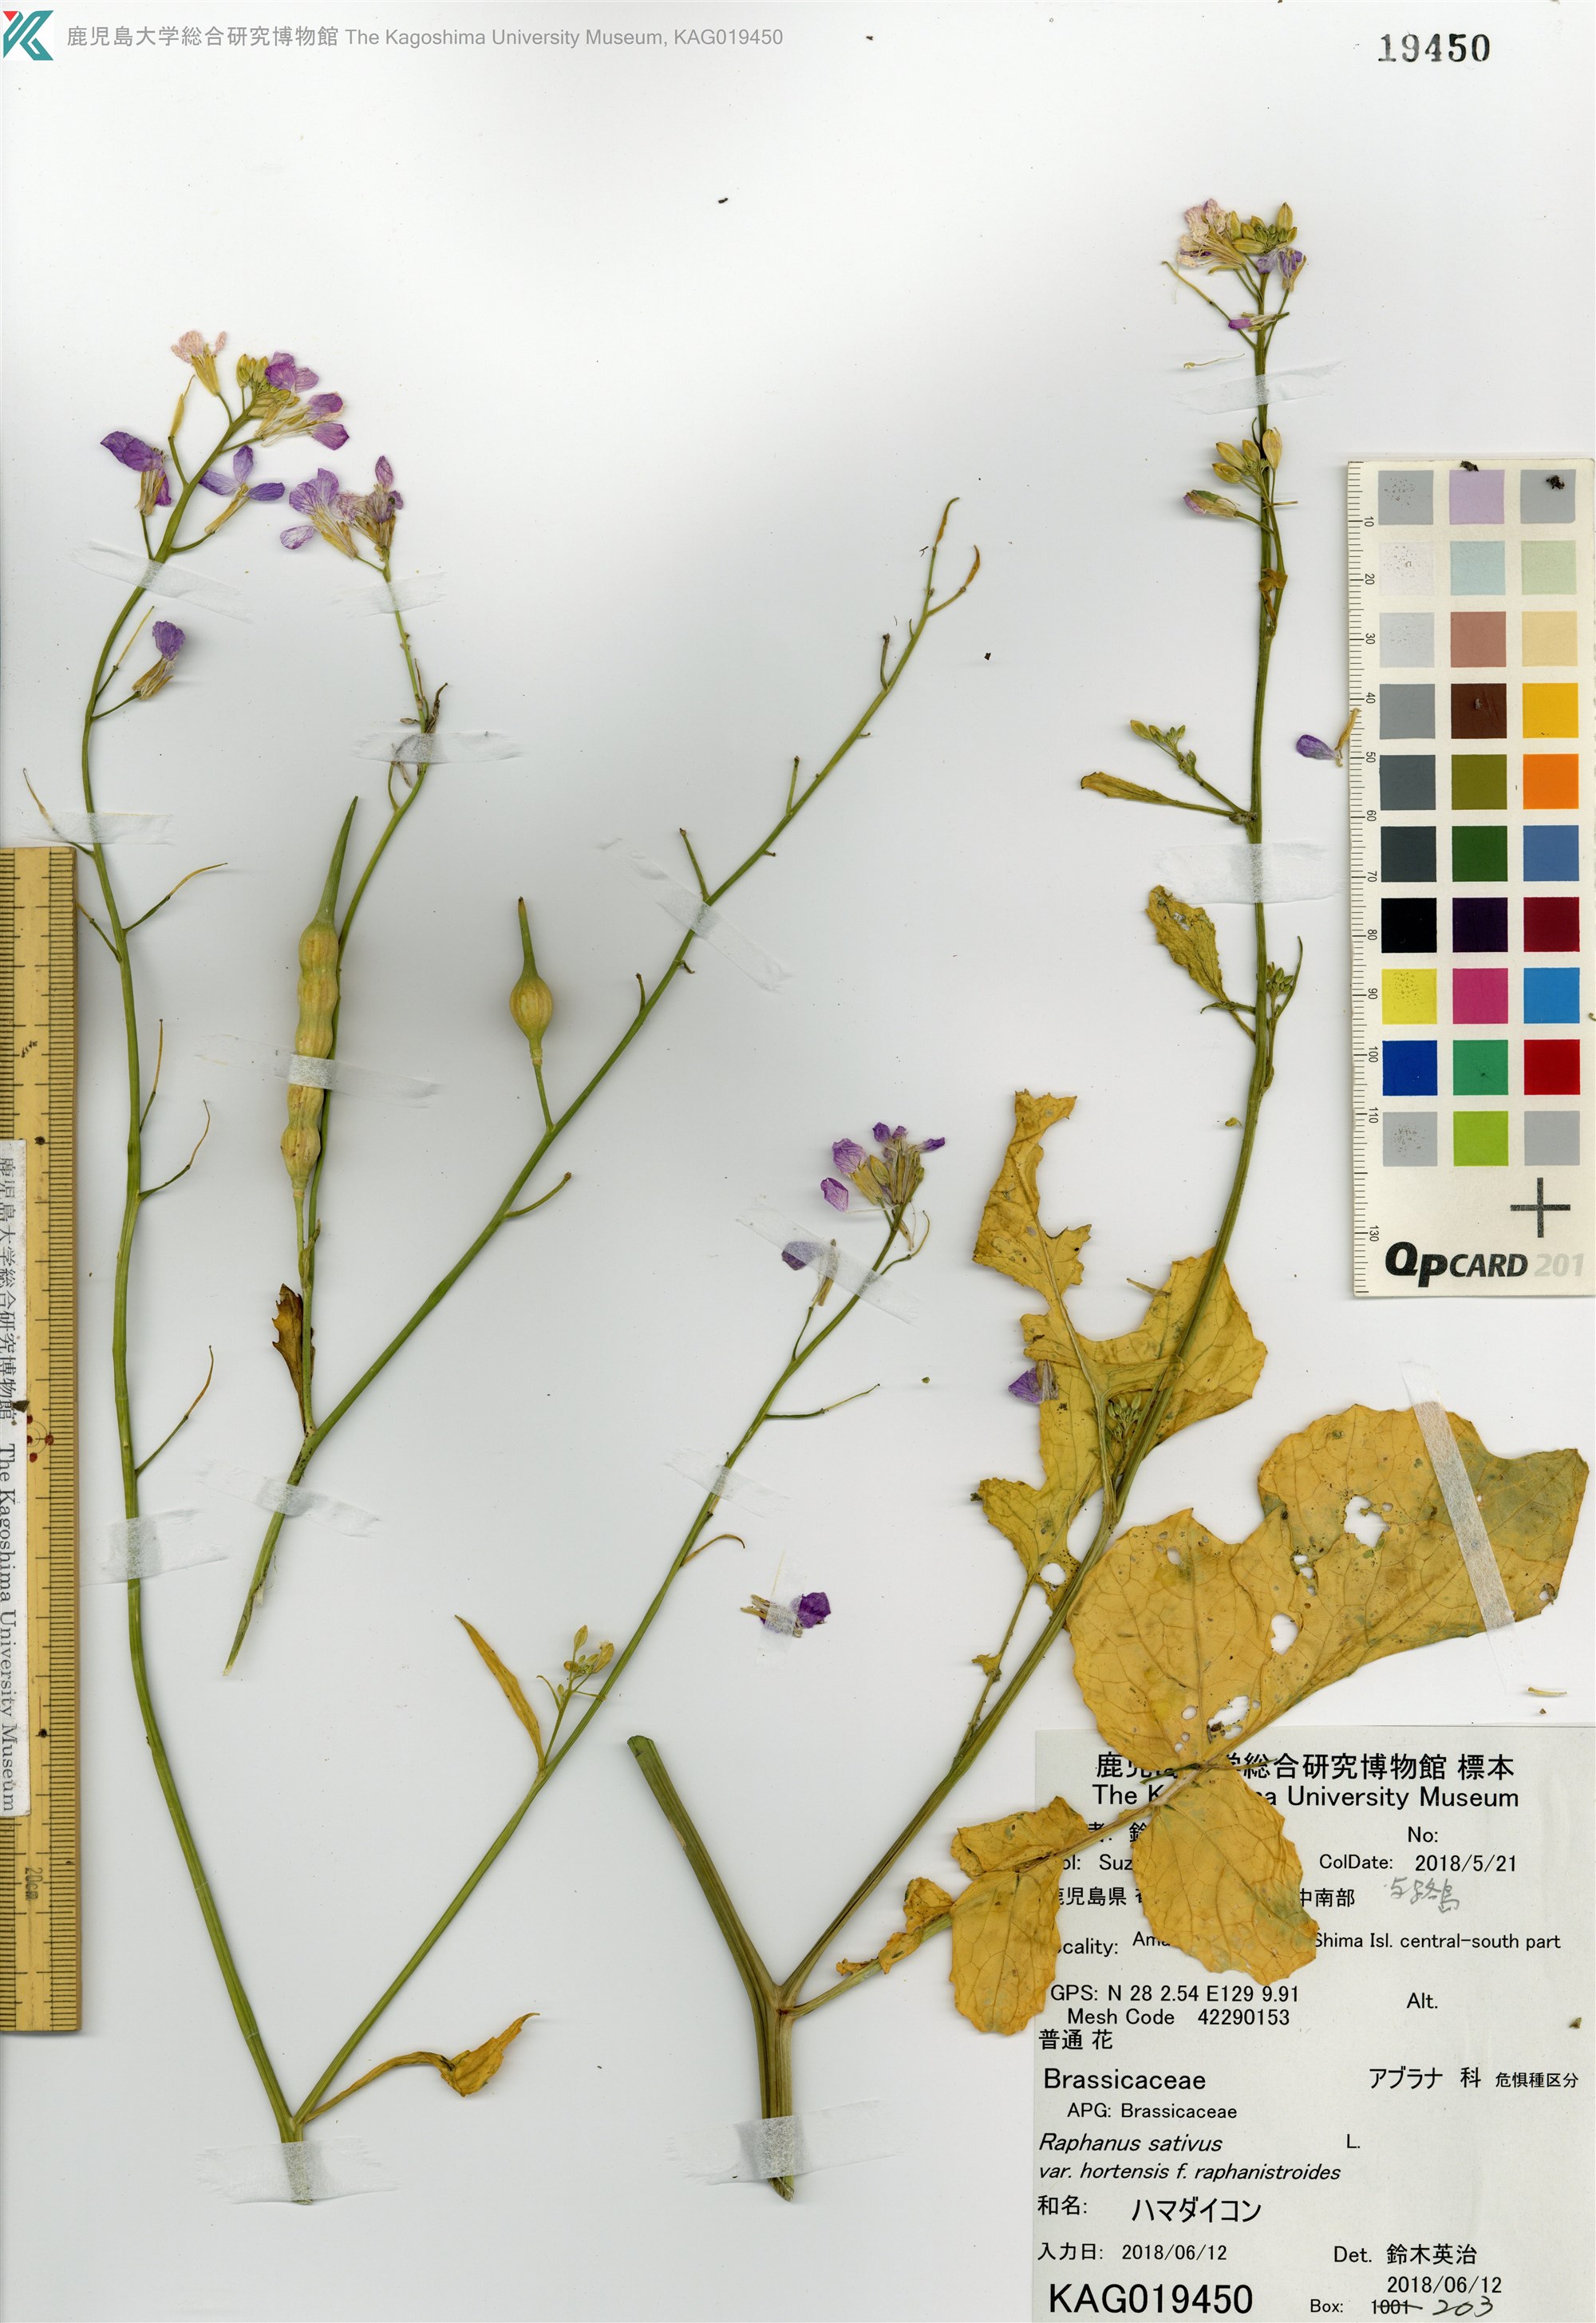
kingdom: Plantae
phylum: Tracheophyta
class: Magnoliopsida
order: Brassicales
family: Brassicaceae
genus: Raphanus
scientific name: Raphanus sativus
